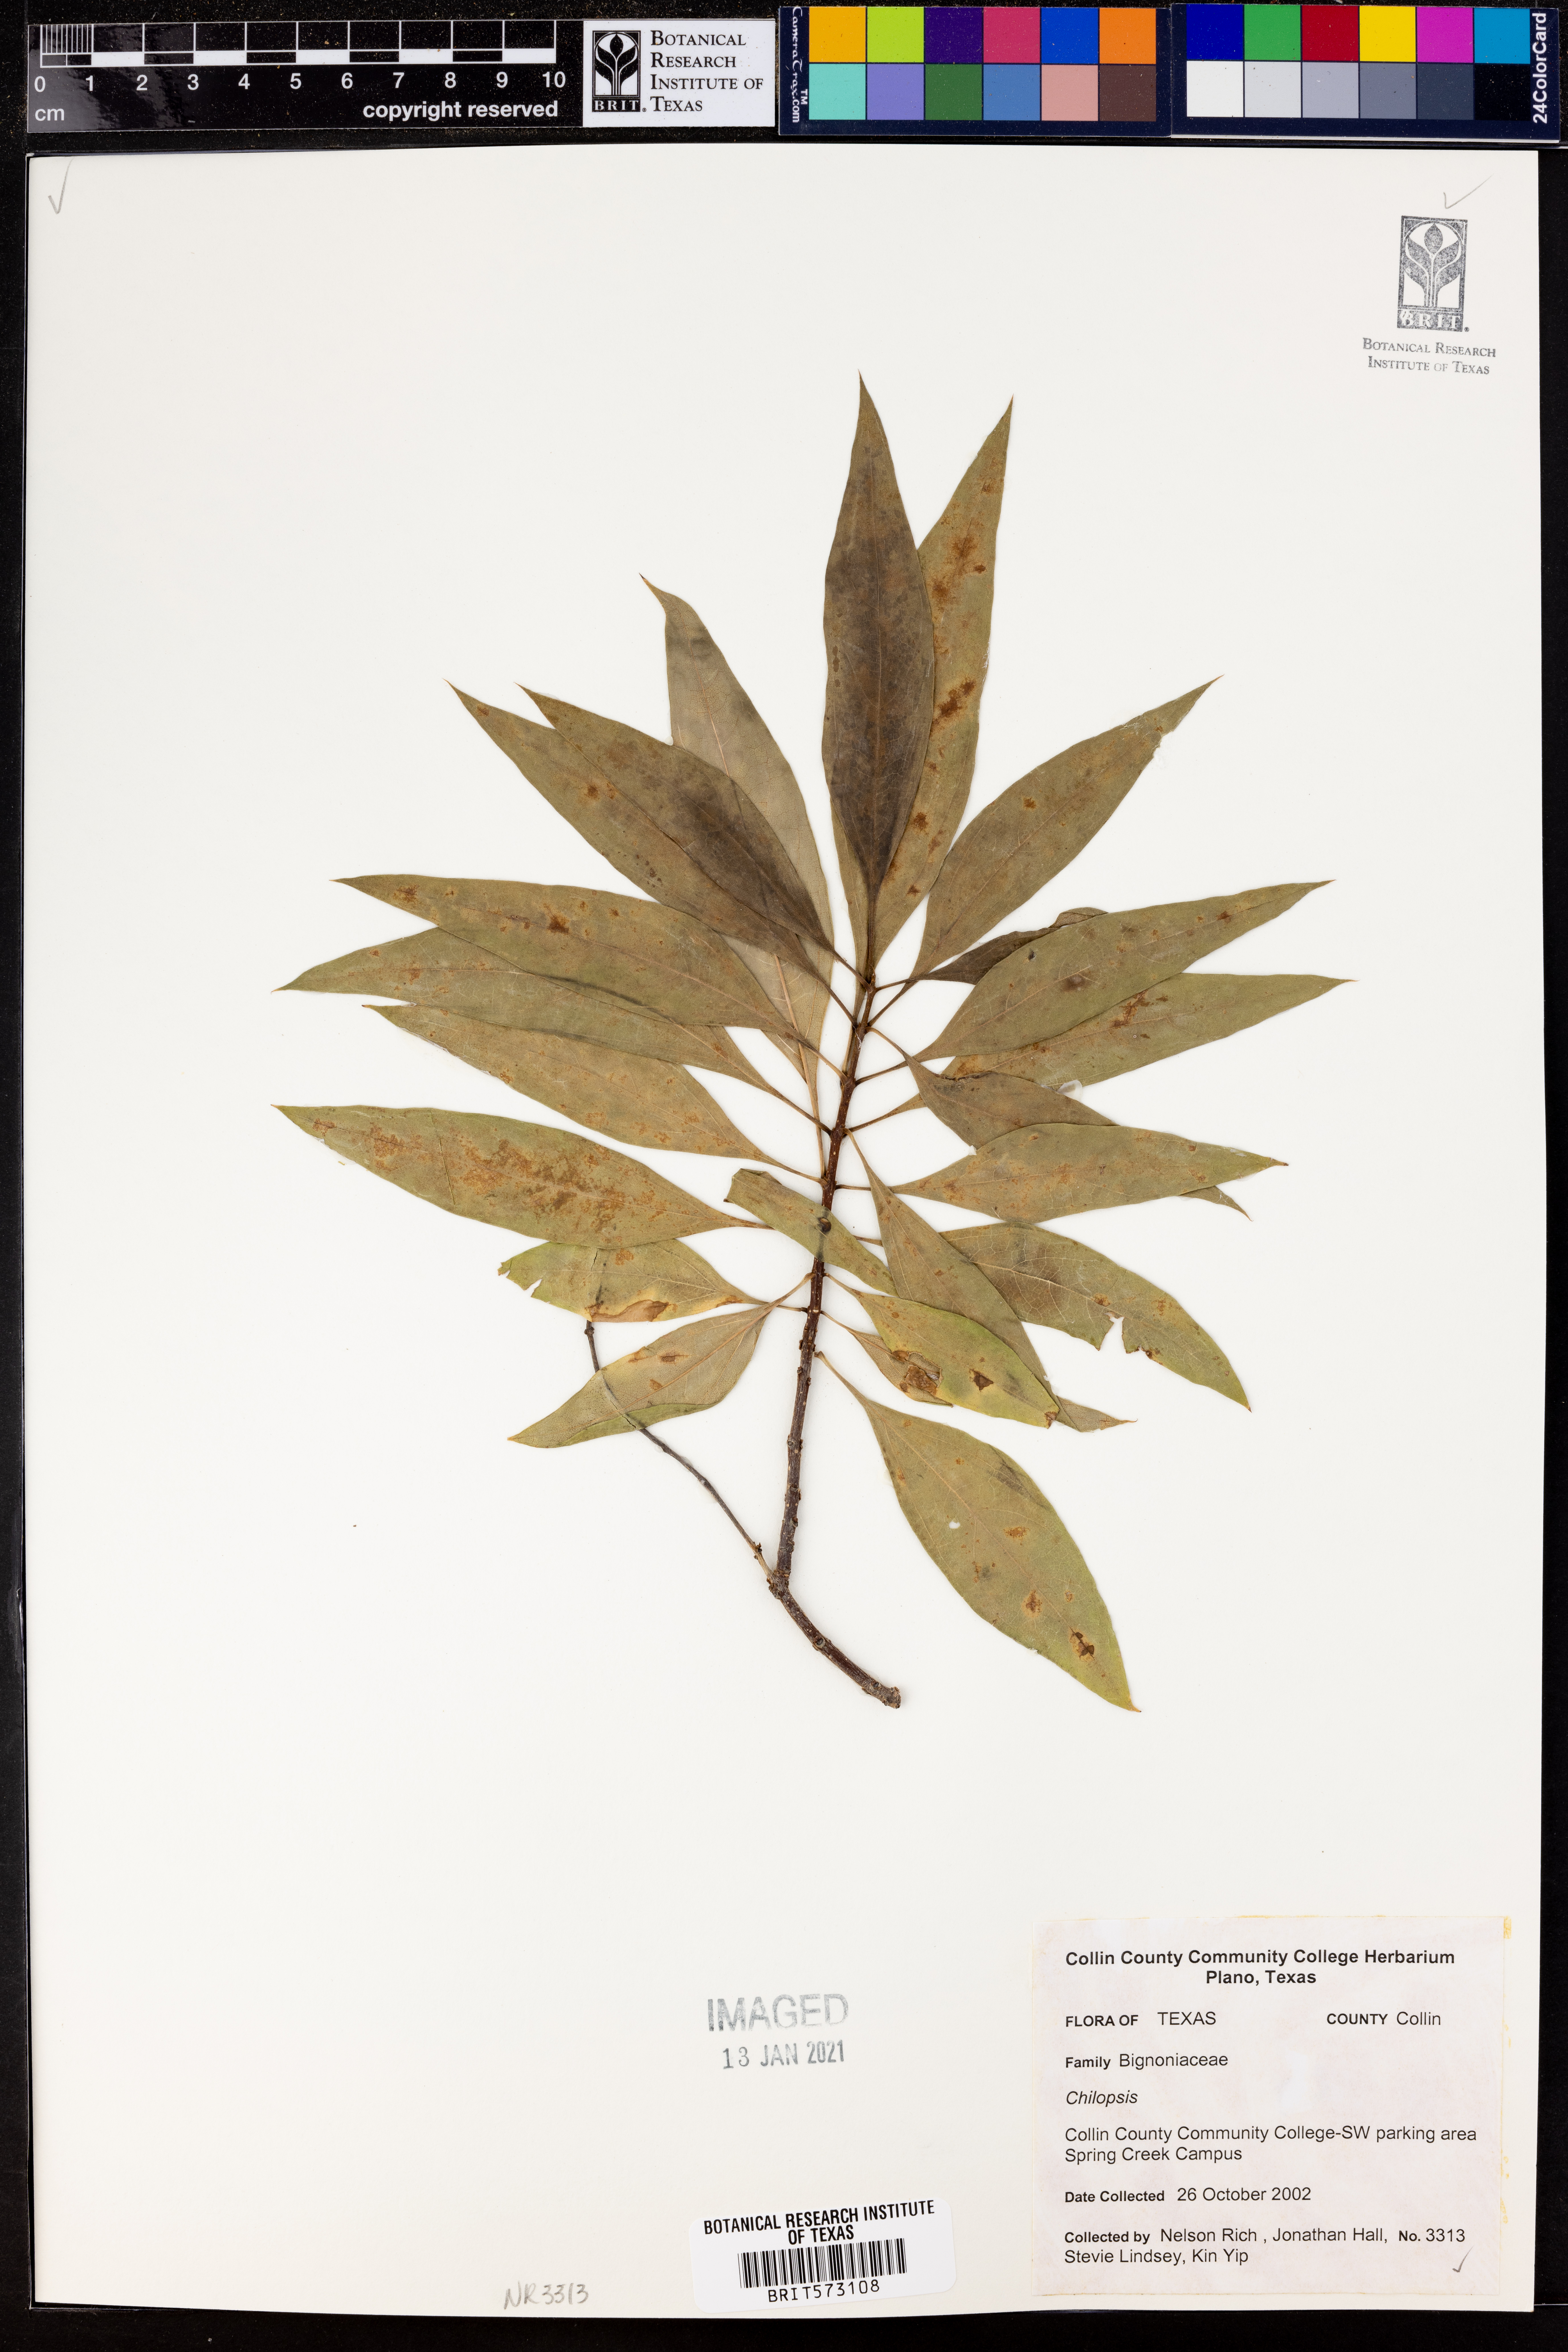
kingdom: Plantae
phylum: Tracheophyta
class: Magnoliopsida
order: Lamiales
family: Bignoniaceae
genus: Chilopsis
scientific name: Chilopsis
